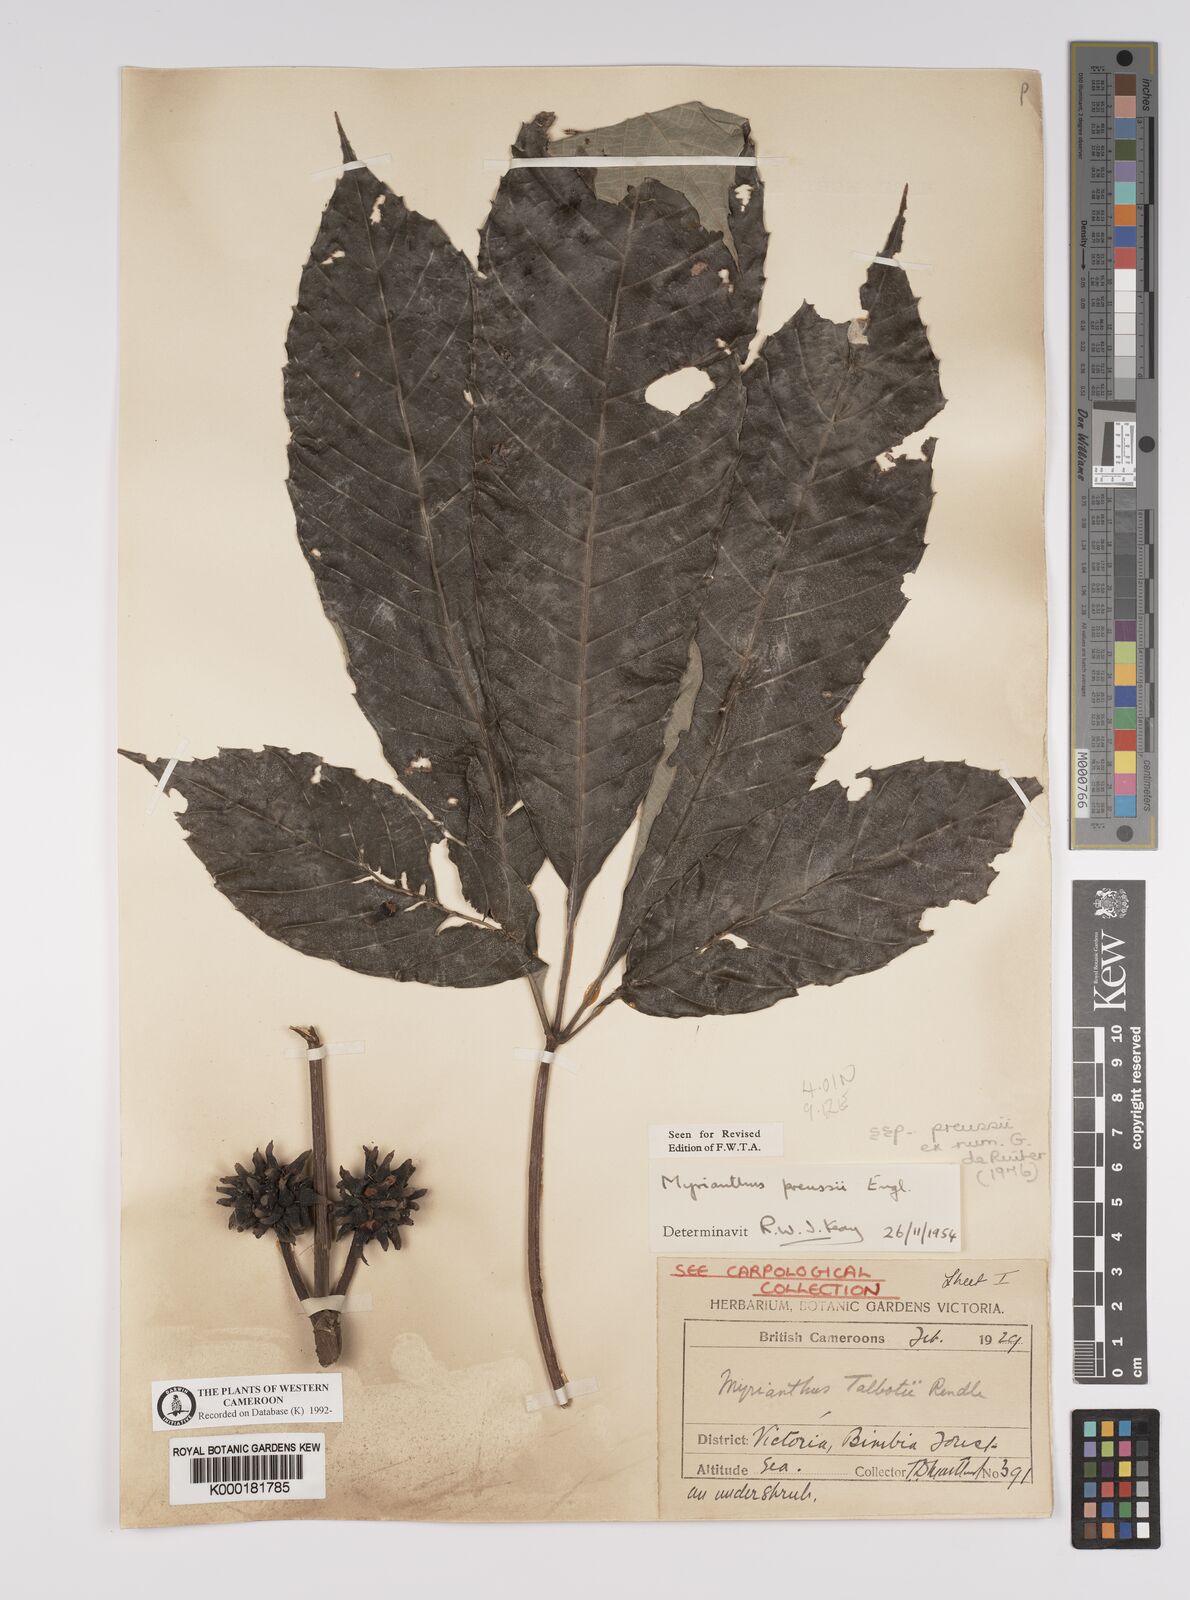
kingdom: Plantae
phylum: Tracheophyta
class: Magnoliopsida
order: Rosales
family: Urticaceae
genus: Myrianthus
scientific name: Myrianthus preussii
